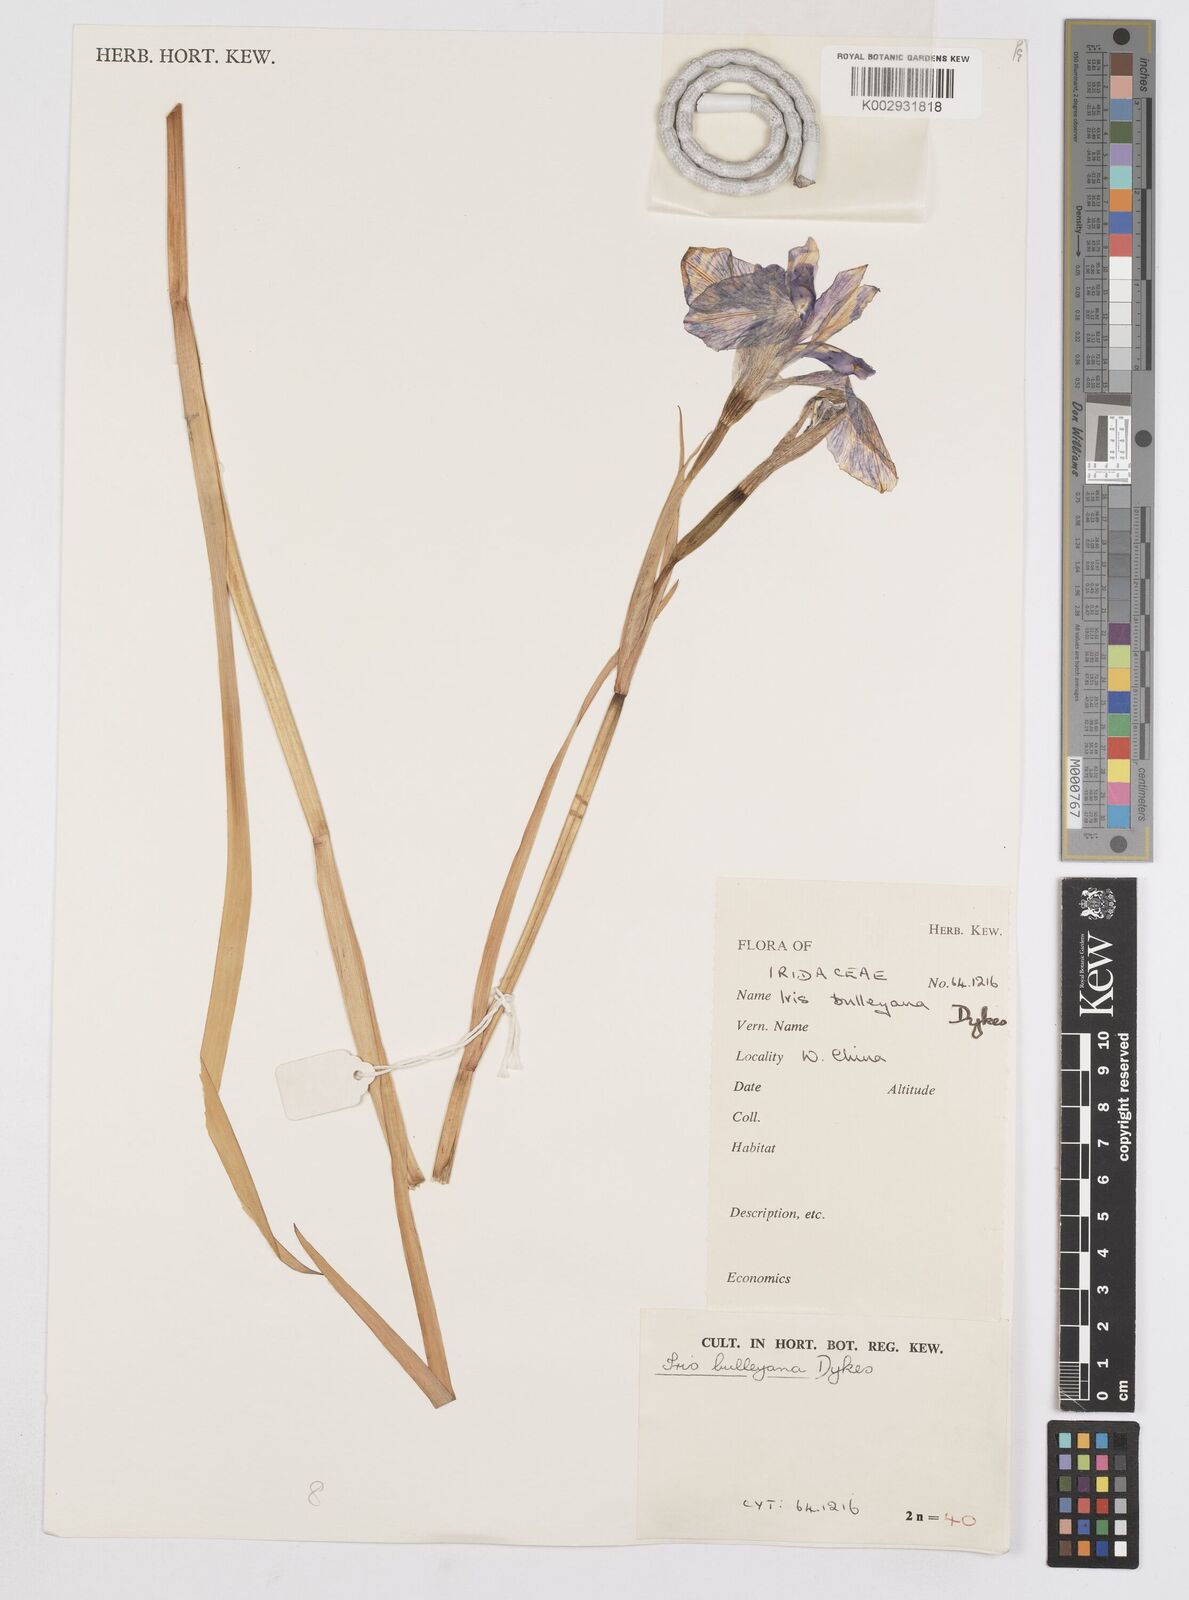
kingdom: Plantae
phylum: Tracheophyta
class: Liliopsida
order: Asparagales
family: Iridaceae
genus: Iris
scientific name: Iris clarkei
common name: Tibet iris
